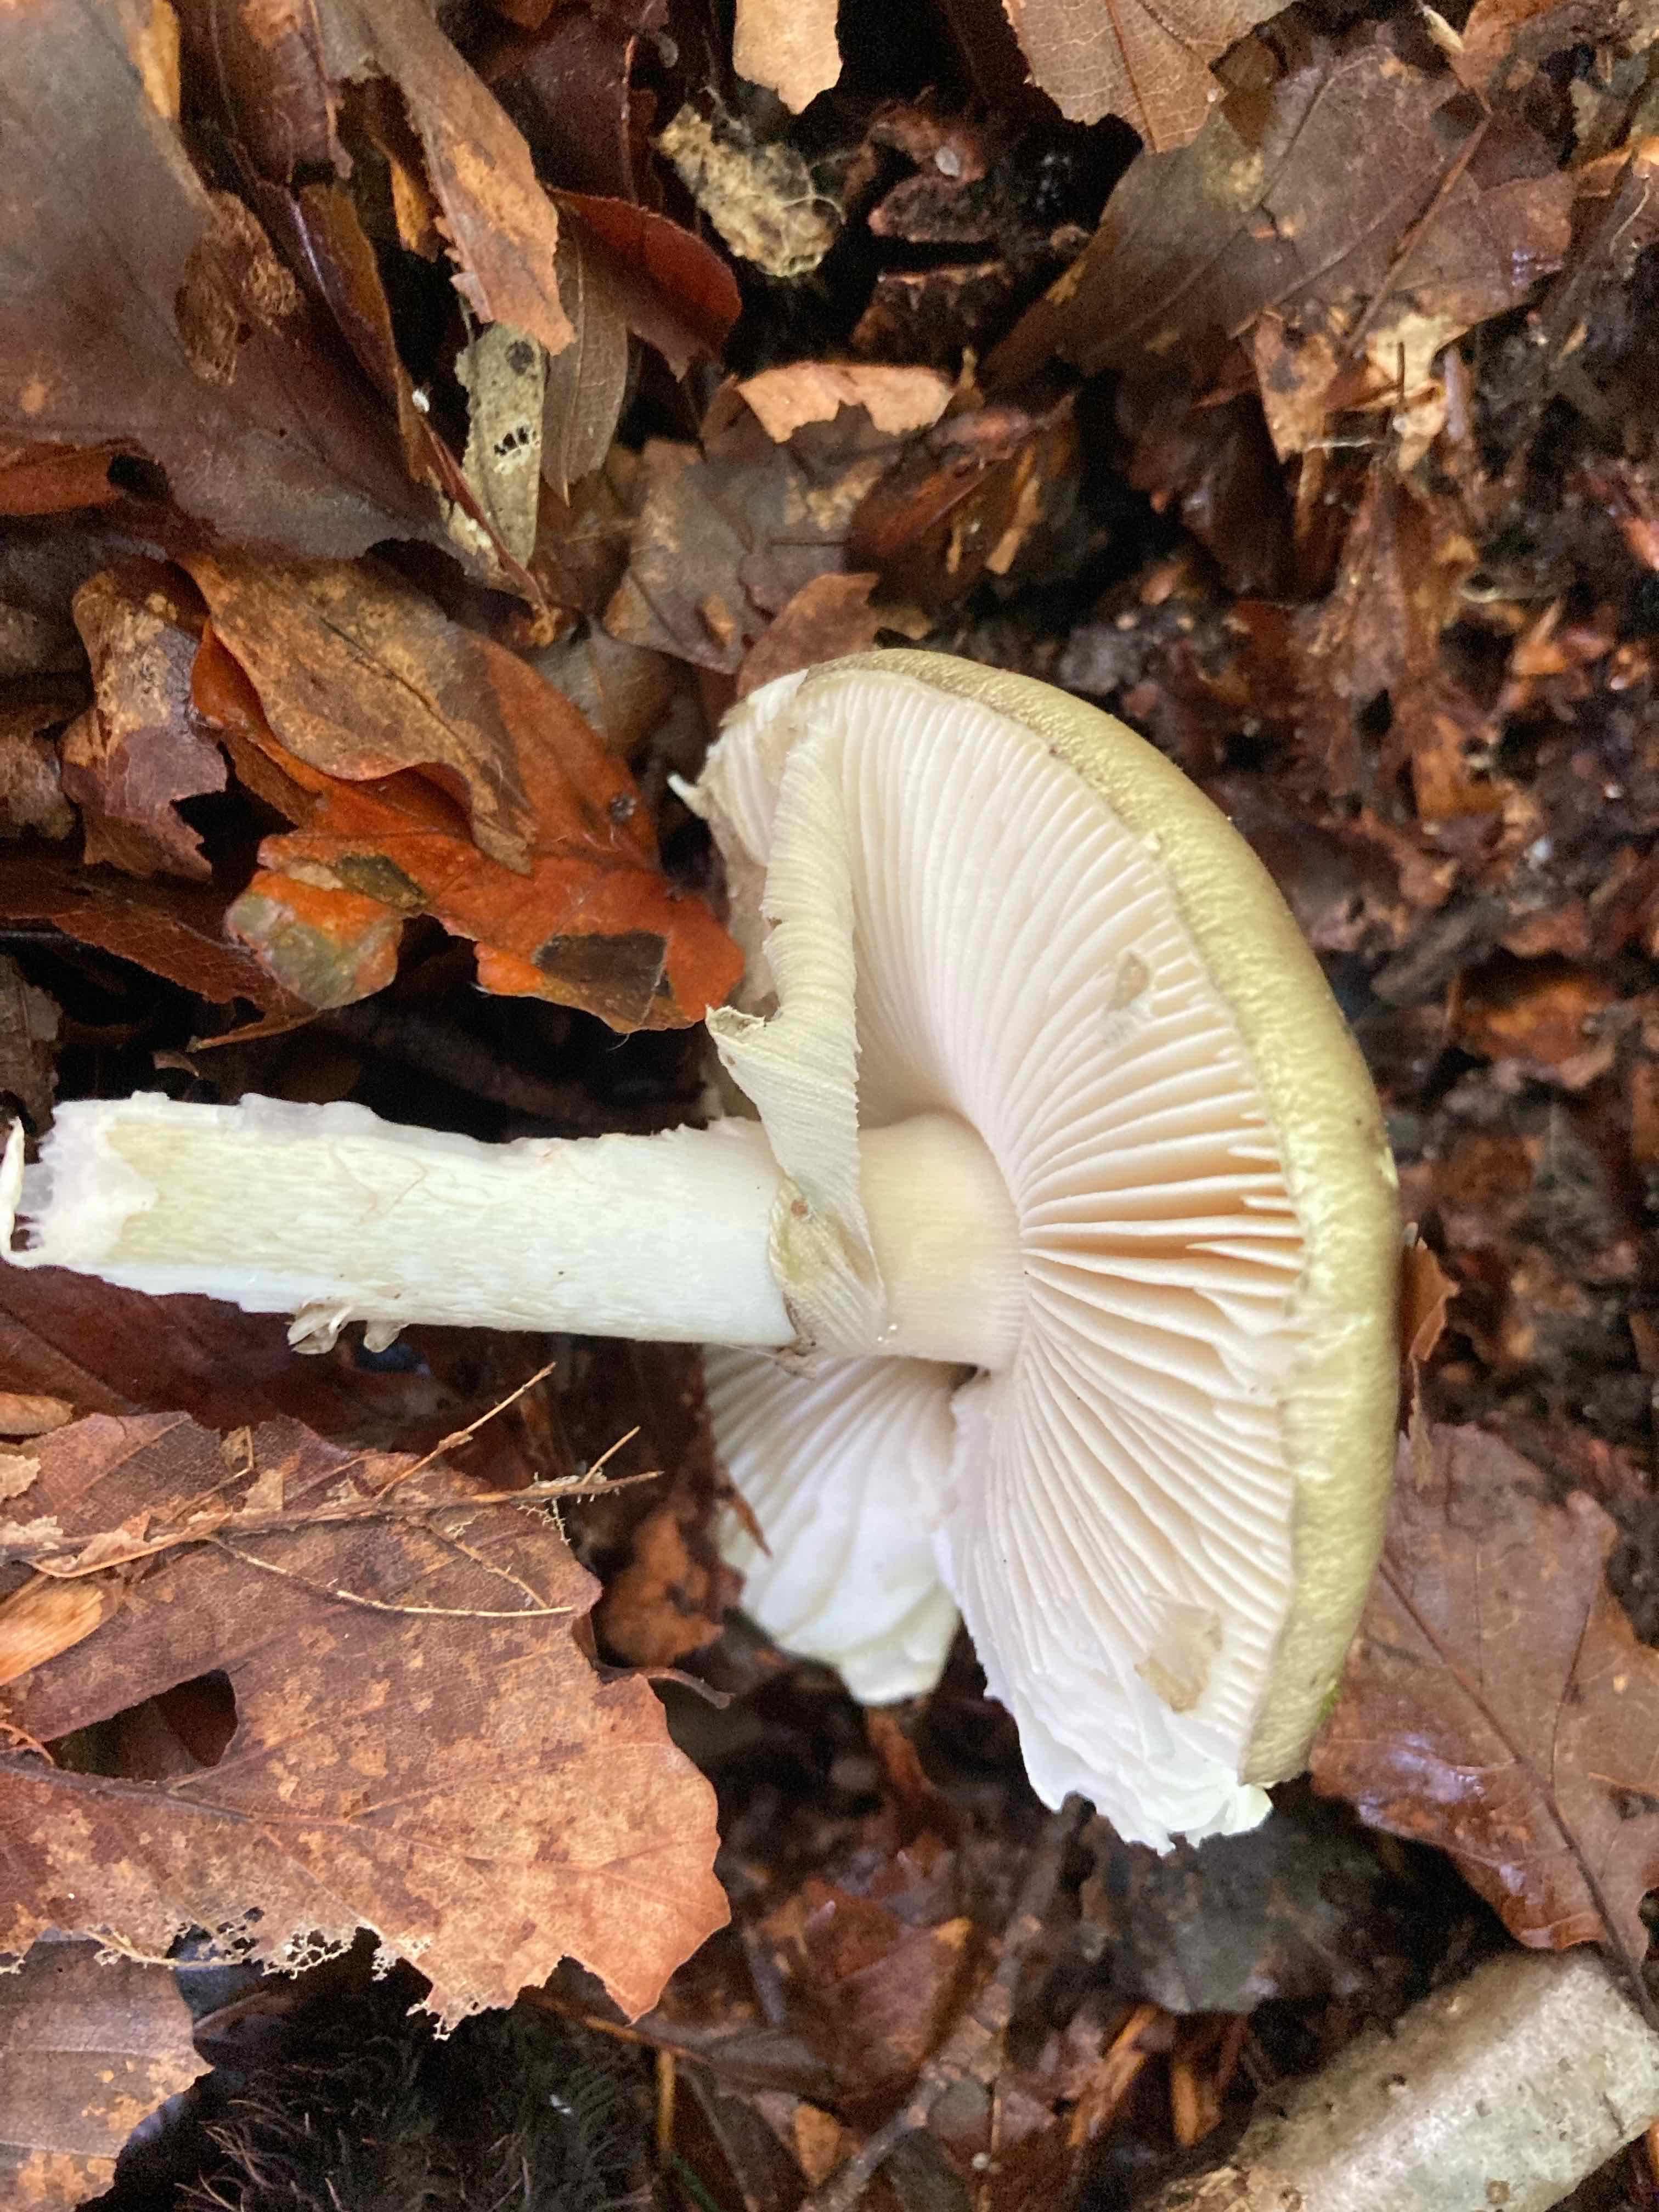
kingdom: Fungi
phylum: Basidiomycota
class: Agaricomycetes
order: Agaricales
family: Amanitaceae
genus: Amanita
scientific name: Amanita phalloides
